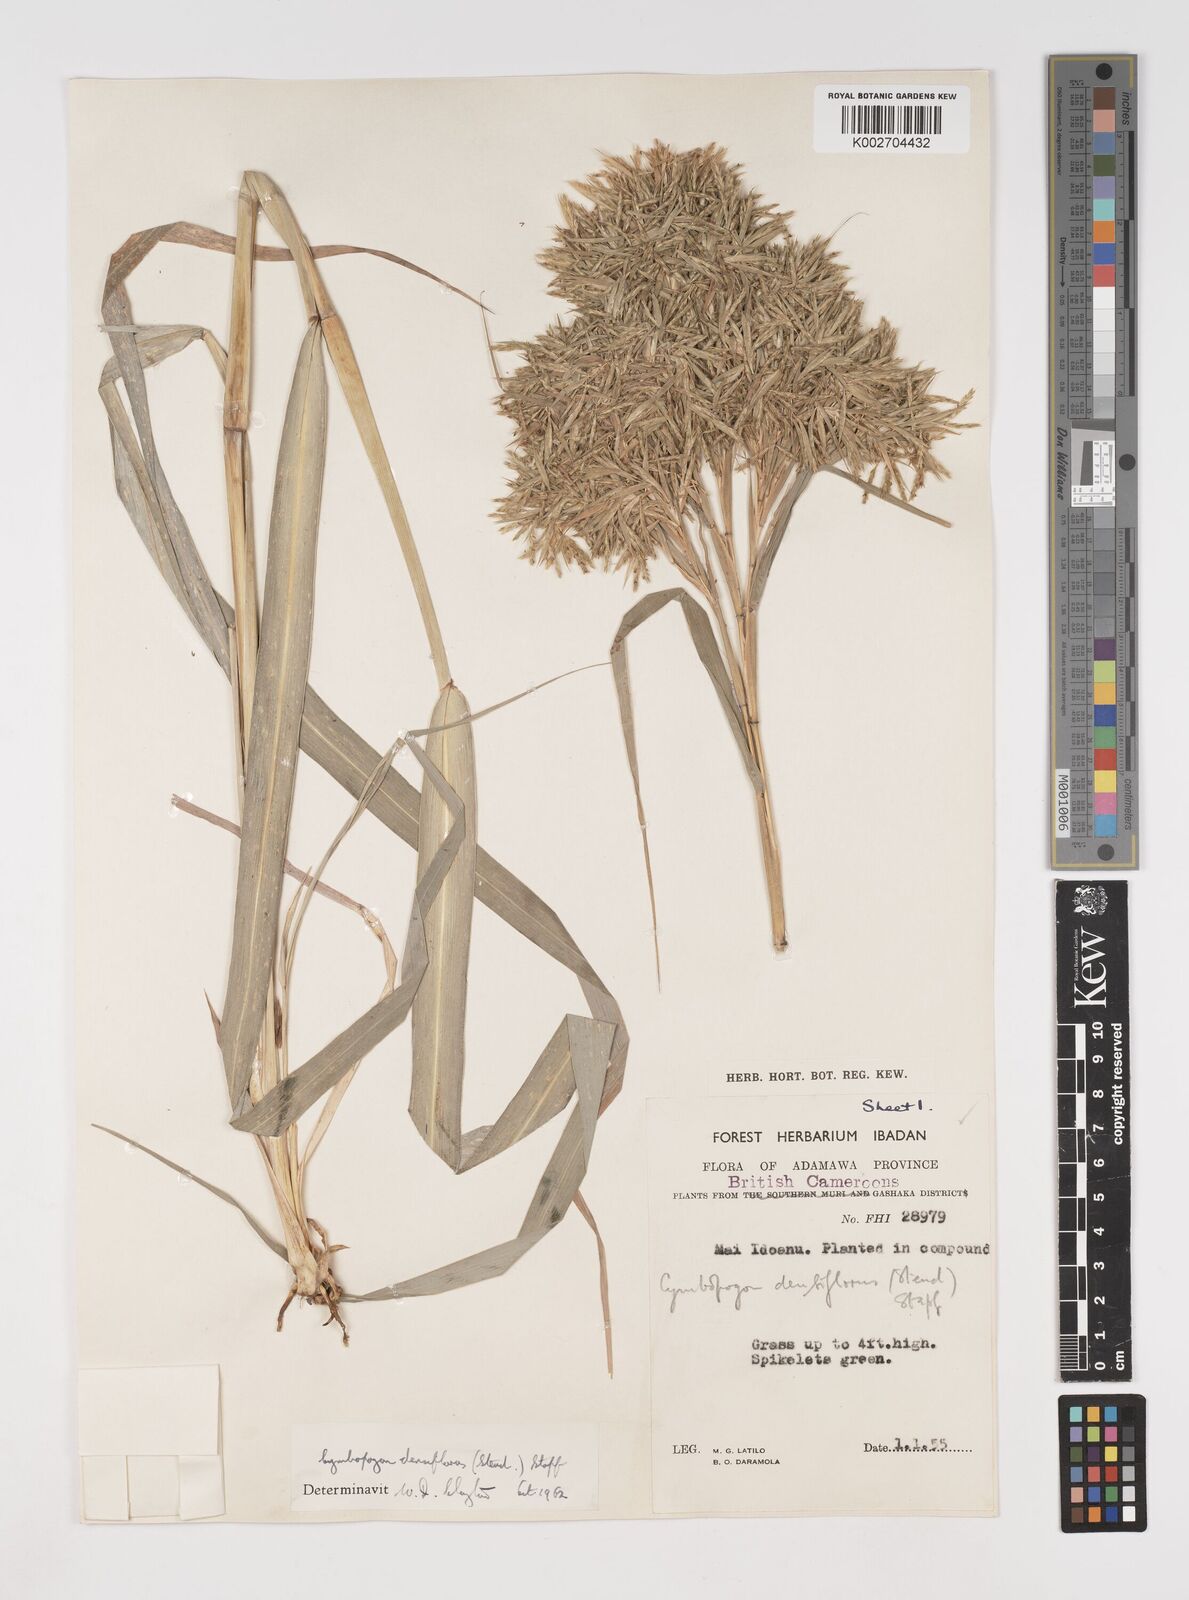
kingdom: Plantae
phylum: Tracheophyta
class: Liliopsida
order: Poales
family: Poaceae
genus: Cymbopogon
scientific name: Cymbopogon densiflorus
